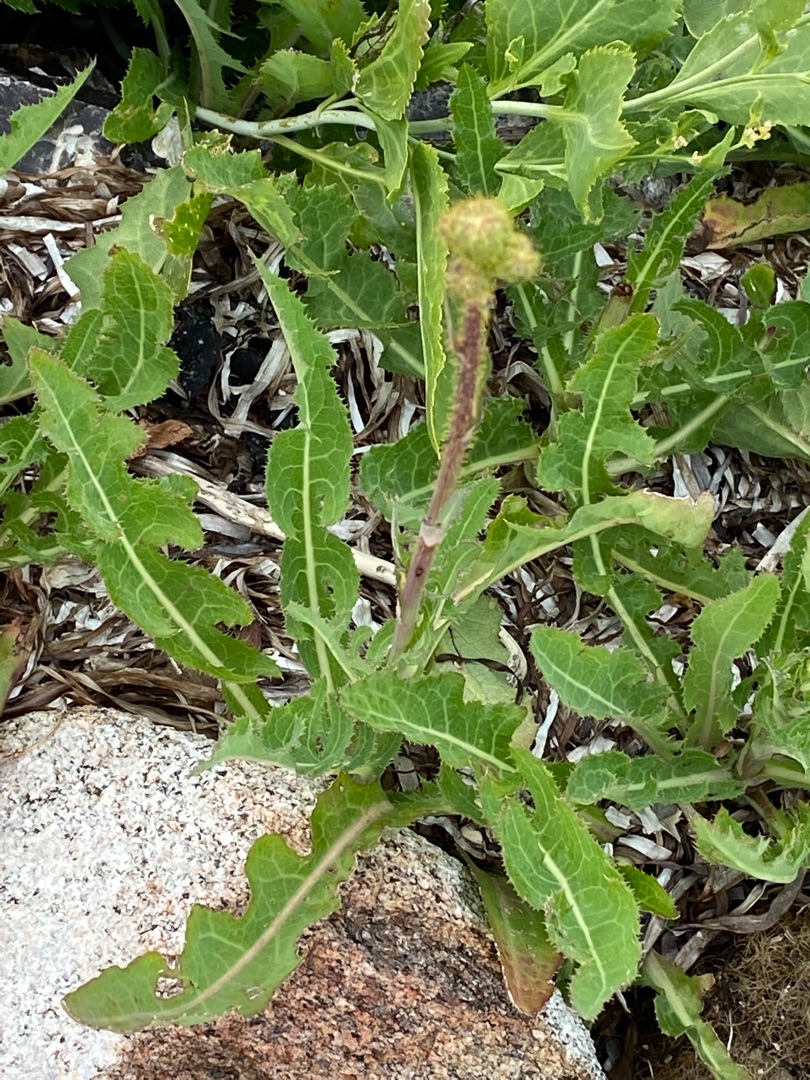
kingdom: Plantae
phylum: Tracheophyta
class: Magnoliopsida
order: Asterales
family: Asteraceae
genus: Sonchus
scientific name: Sonchus arvensis
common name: Ager-svinemælk
